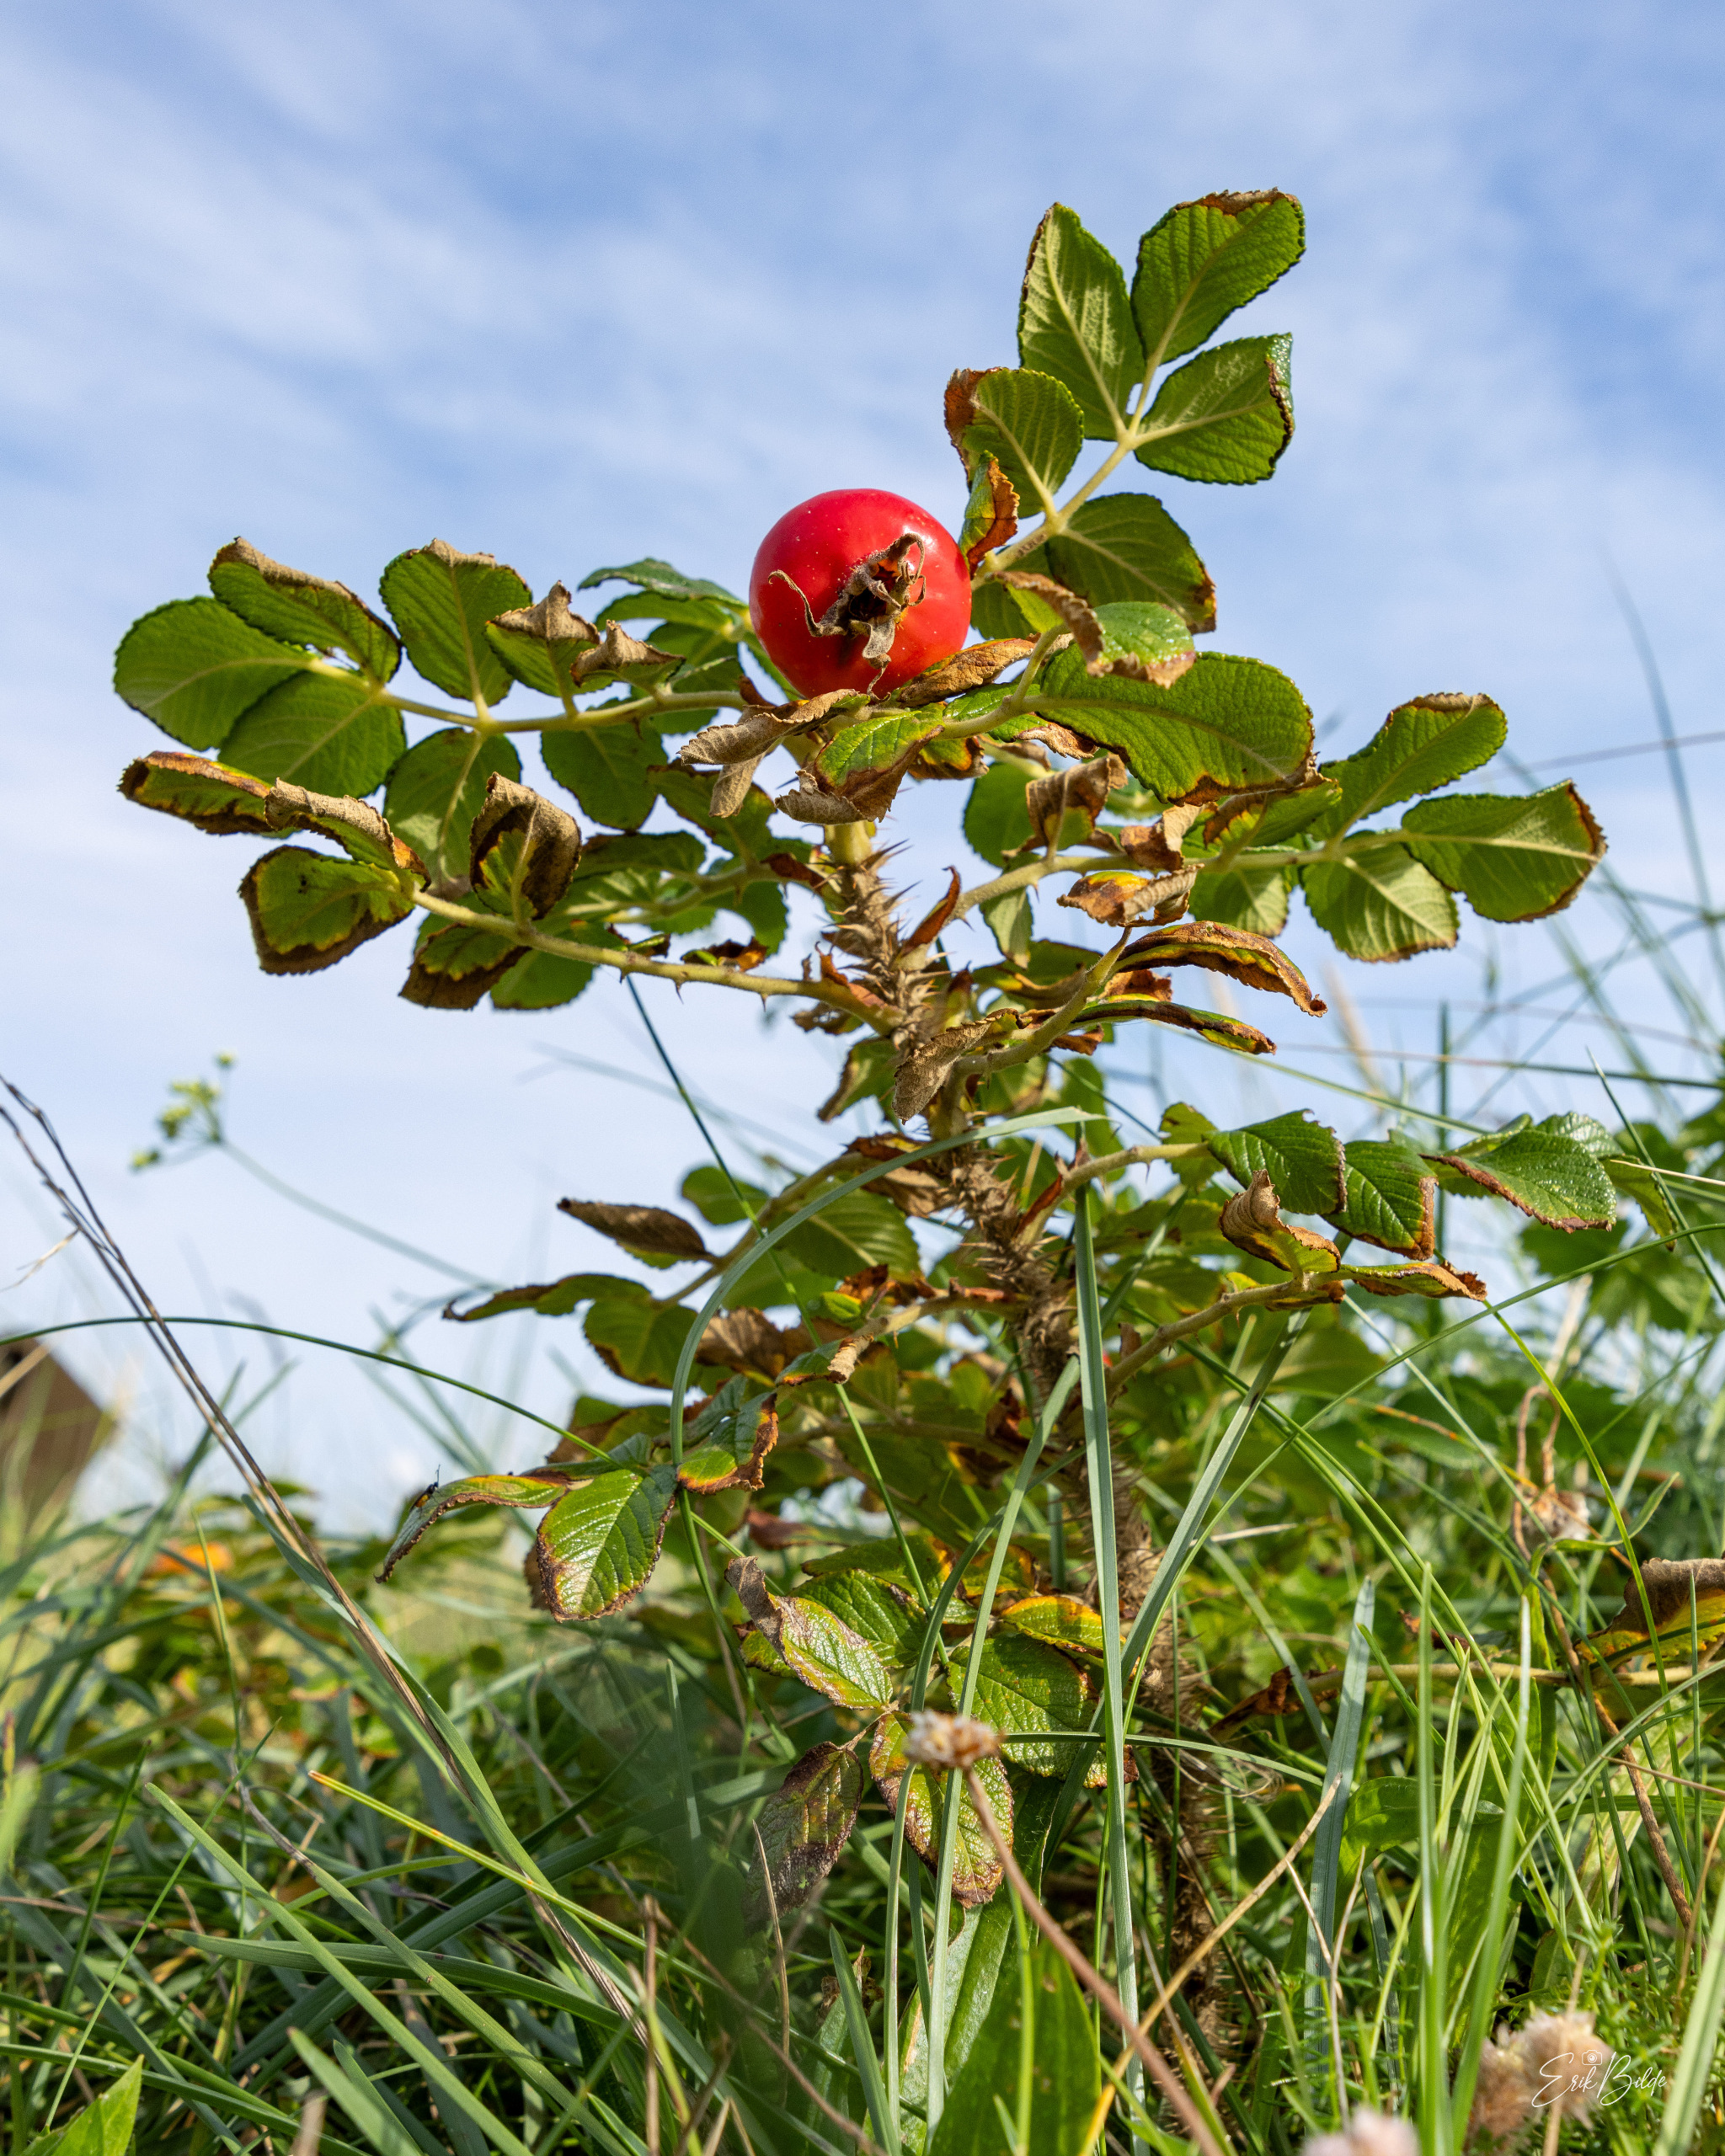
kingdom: Plantae
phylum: Tracheophyta
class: Magnoliopsida
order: Rosales
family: Rosaceae
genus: Rosa
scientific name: Rosa rugosa
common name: Rynket rose
